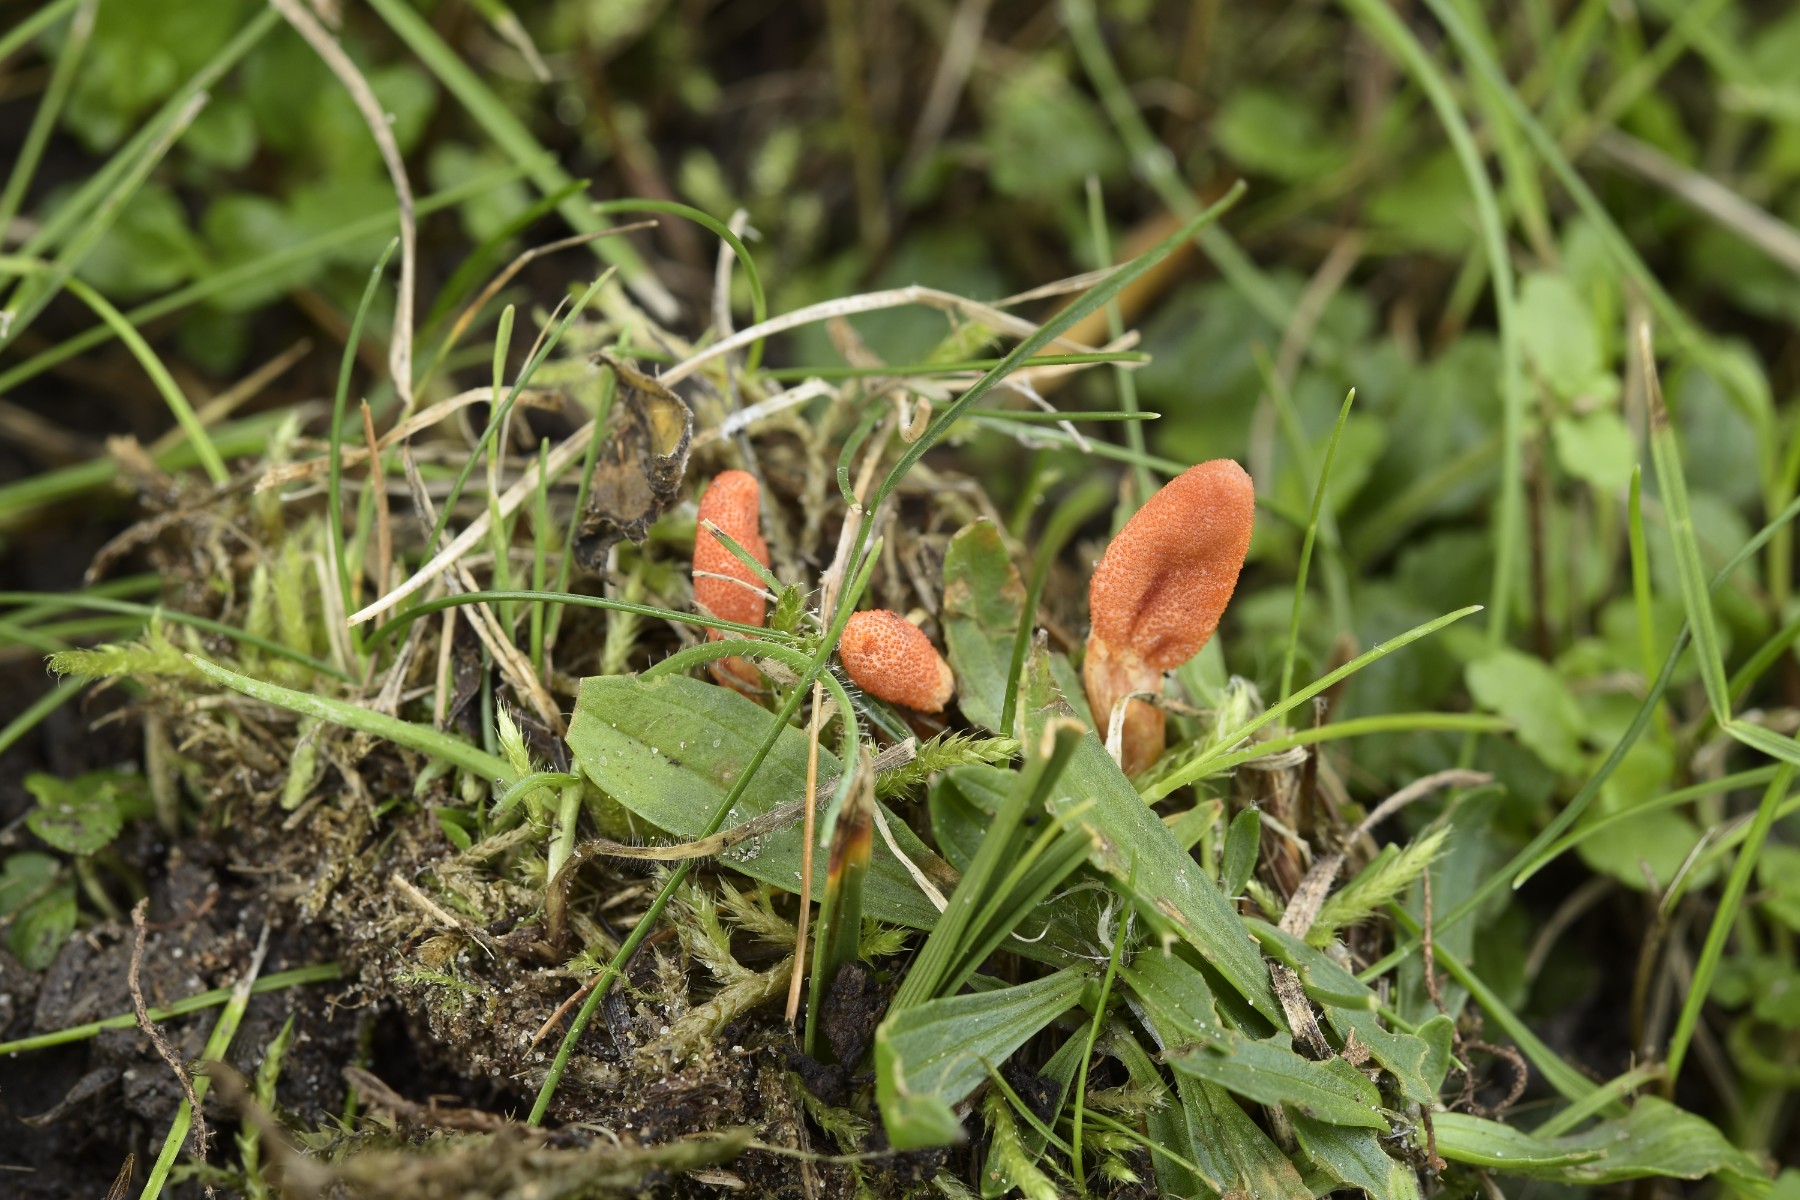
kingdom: Fungi
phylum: Ascomycota
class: Sordariomycetes
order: Hypocreales
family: Cordycipitaceae
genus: Cordyceps
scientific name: Cordyceps militaris
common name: puppe-snyltekølle
